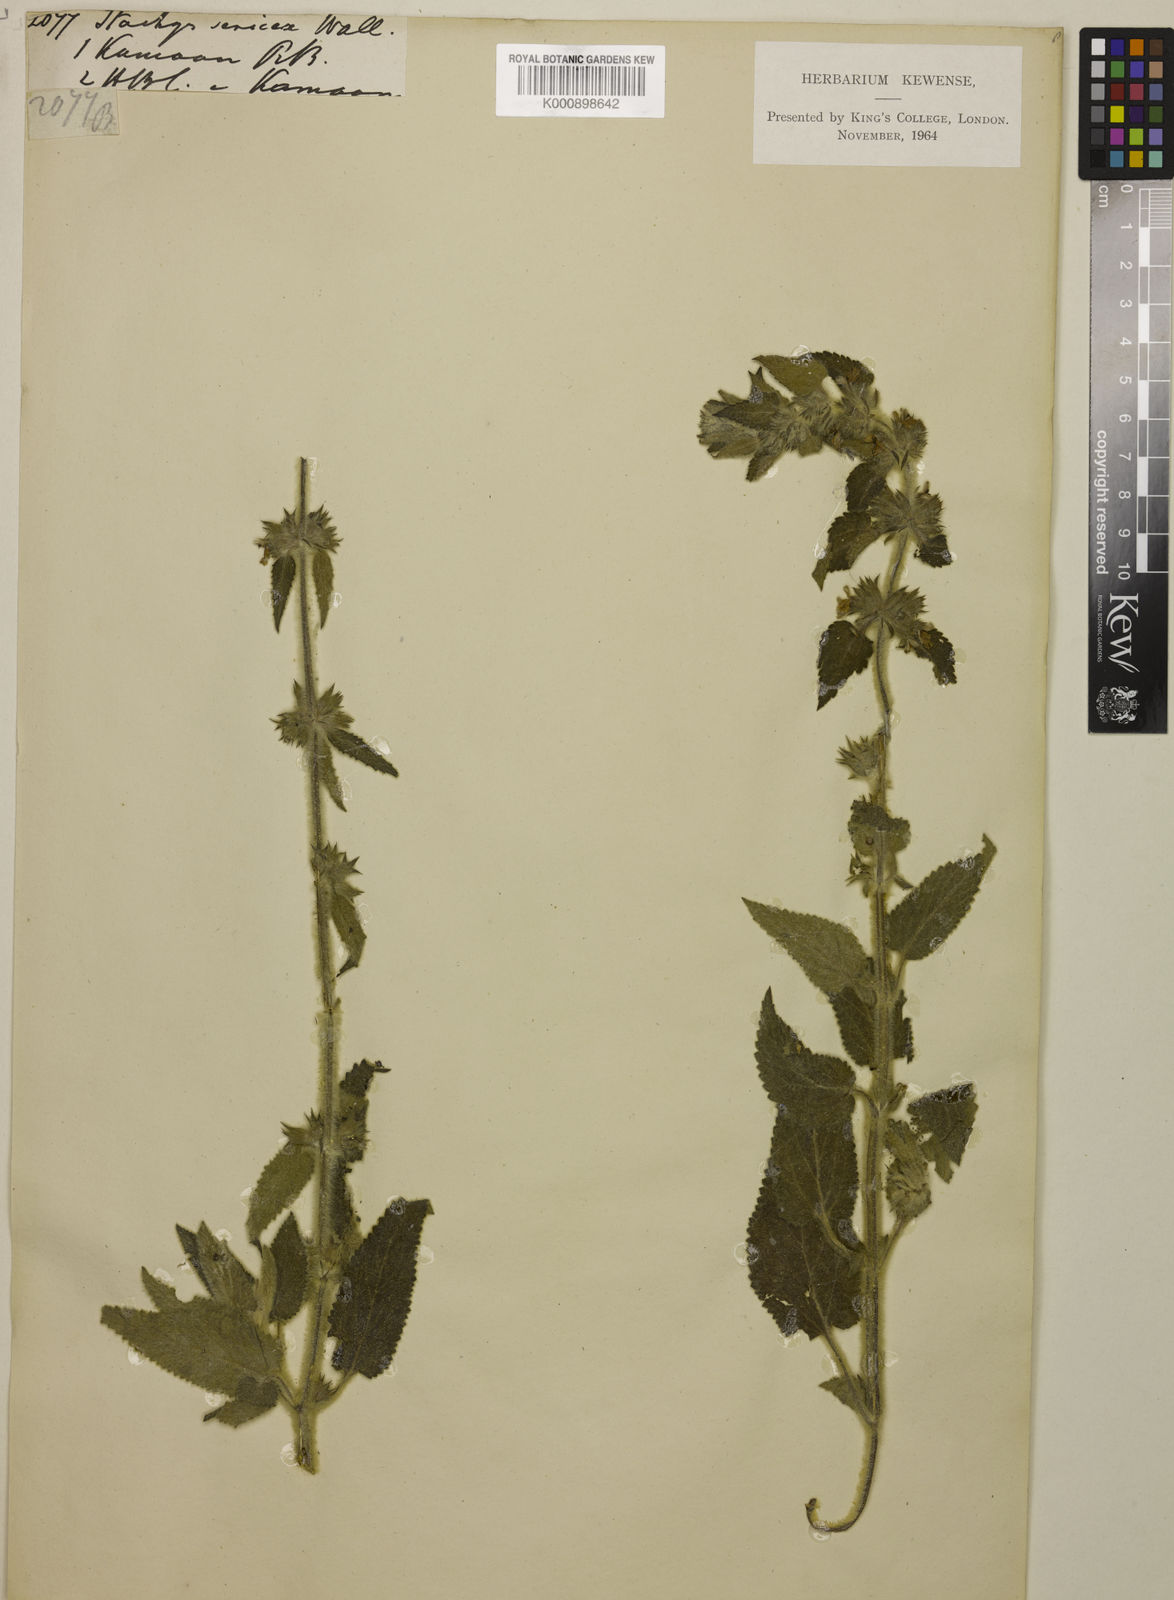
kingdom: Plantae
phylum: Tracheophyta
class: Magnoliopsida
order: Lamiales
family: Lamiaceae
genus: Stachys
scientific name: Stachys
